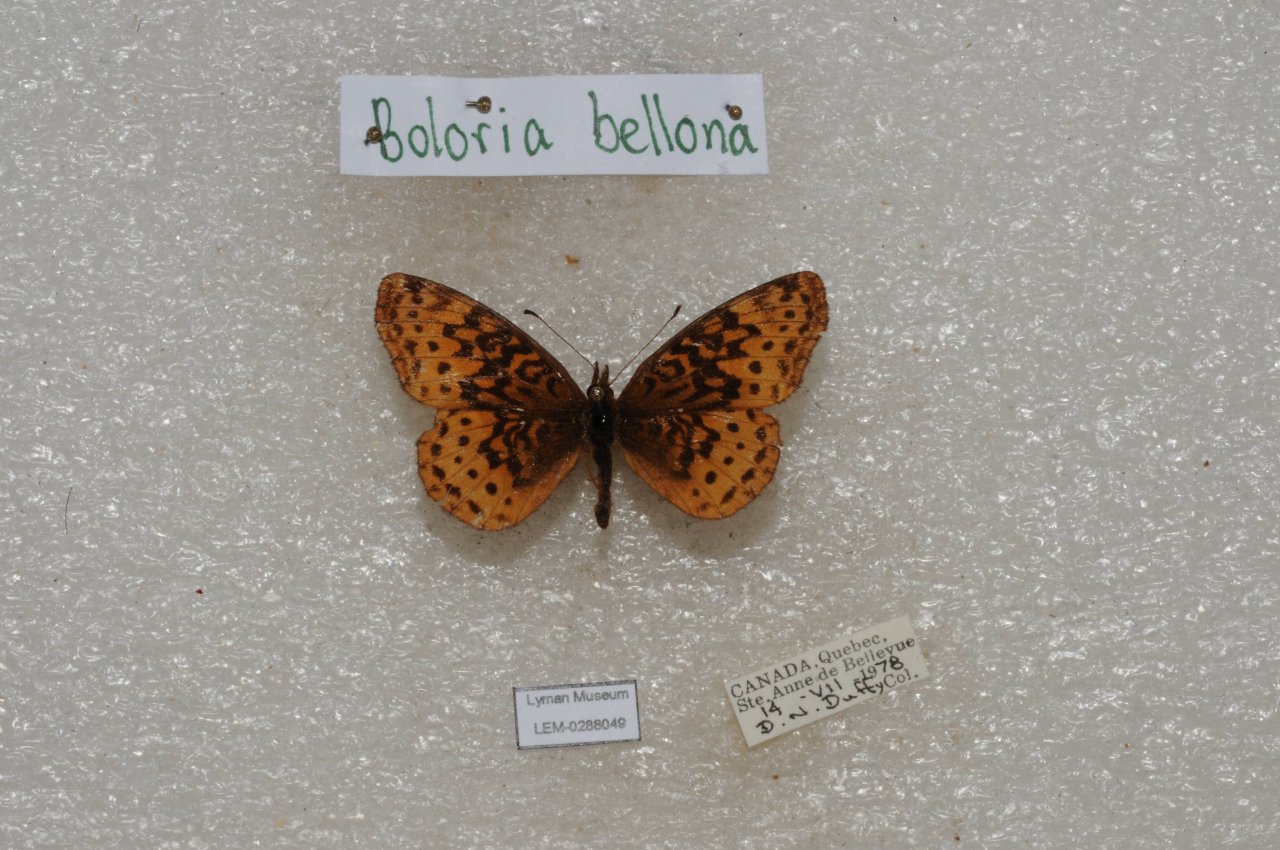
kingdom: Animalia
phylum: Arthropoda
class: Insecta
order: Lepidoptera
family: Nymphalidae
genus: Clossiana
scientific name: Clossiana toddi
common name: Meadow Fritillary
